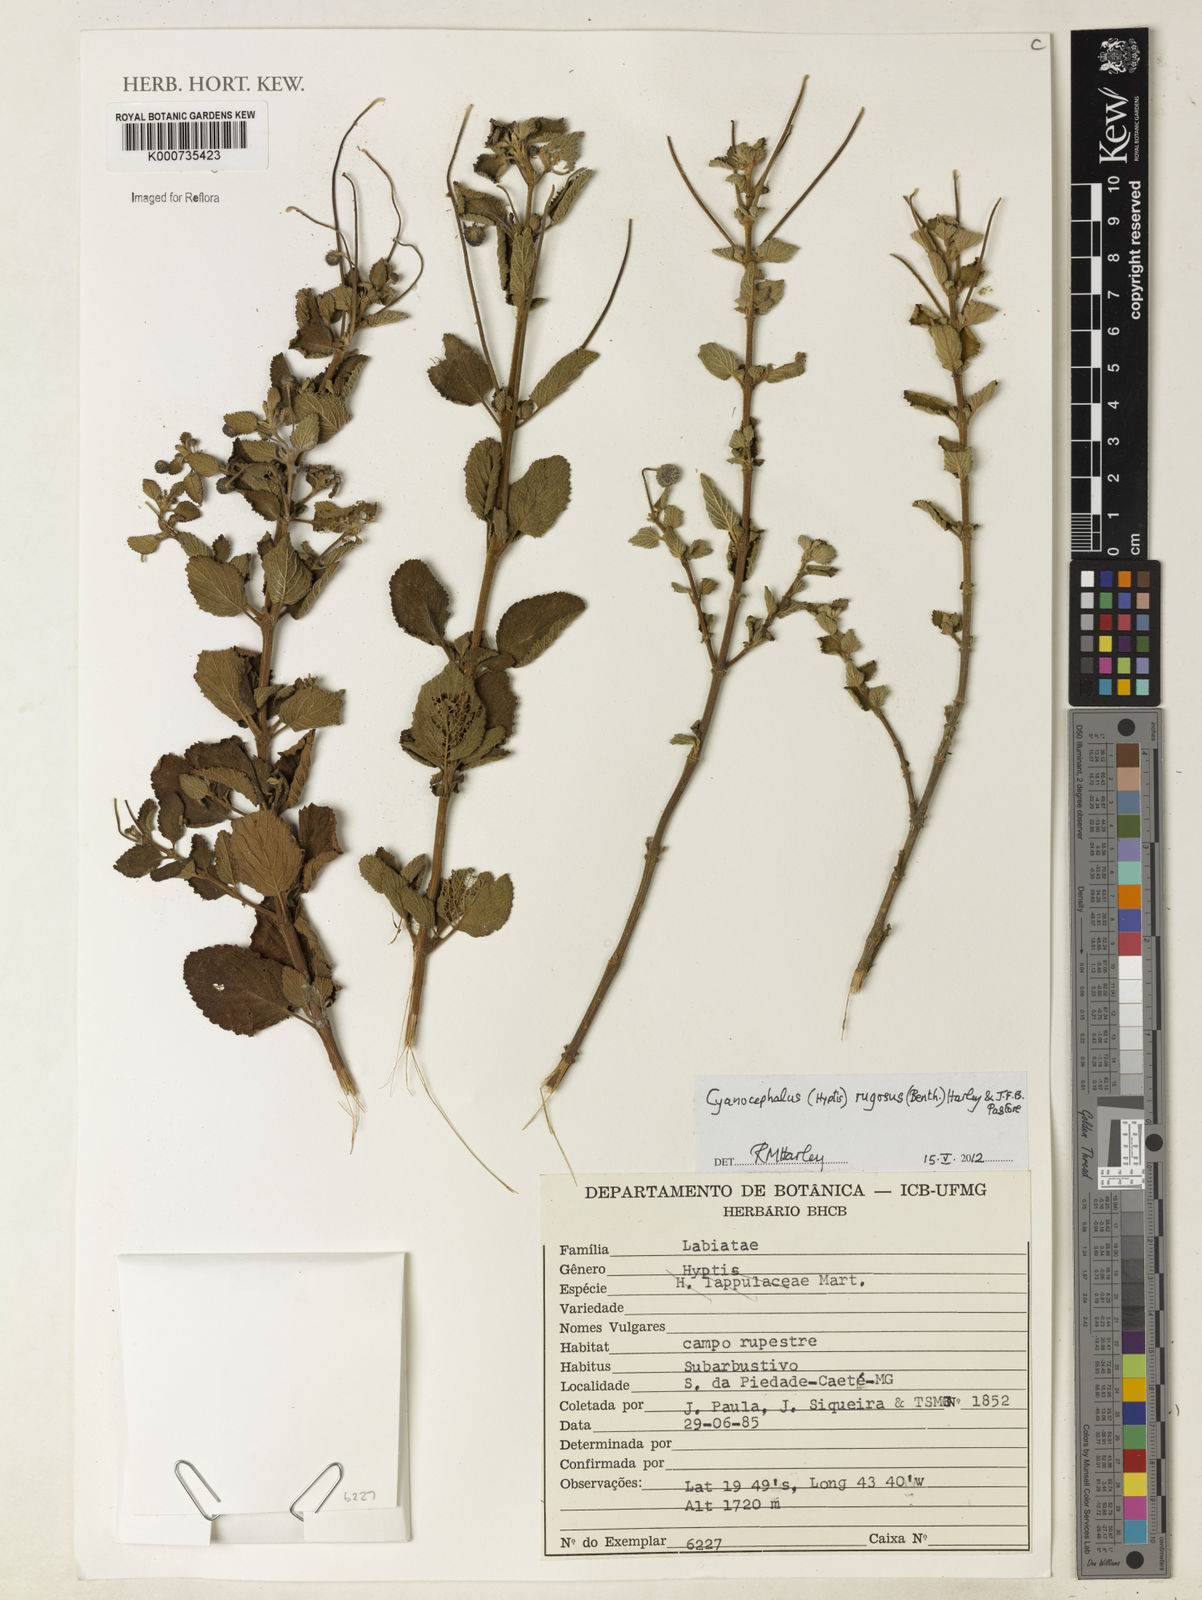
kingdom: Plantae
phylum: Tracheophyta
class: Magnoliopsida
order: Lamiales
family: Lamiaceae
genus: Cyanocephalus
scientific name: Cyanocephalus
